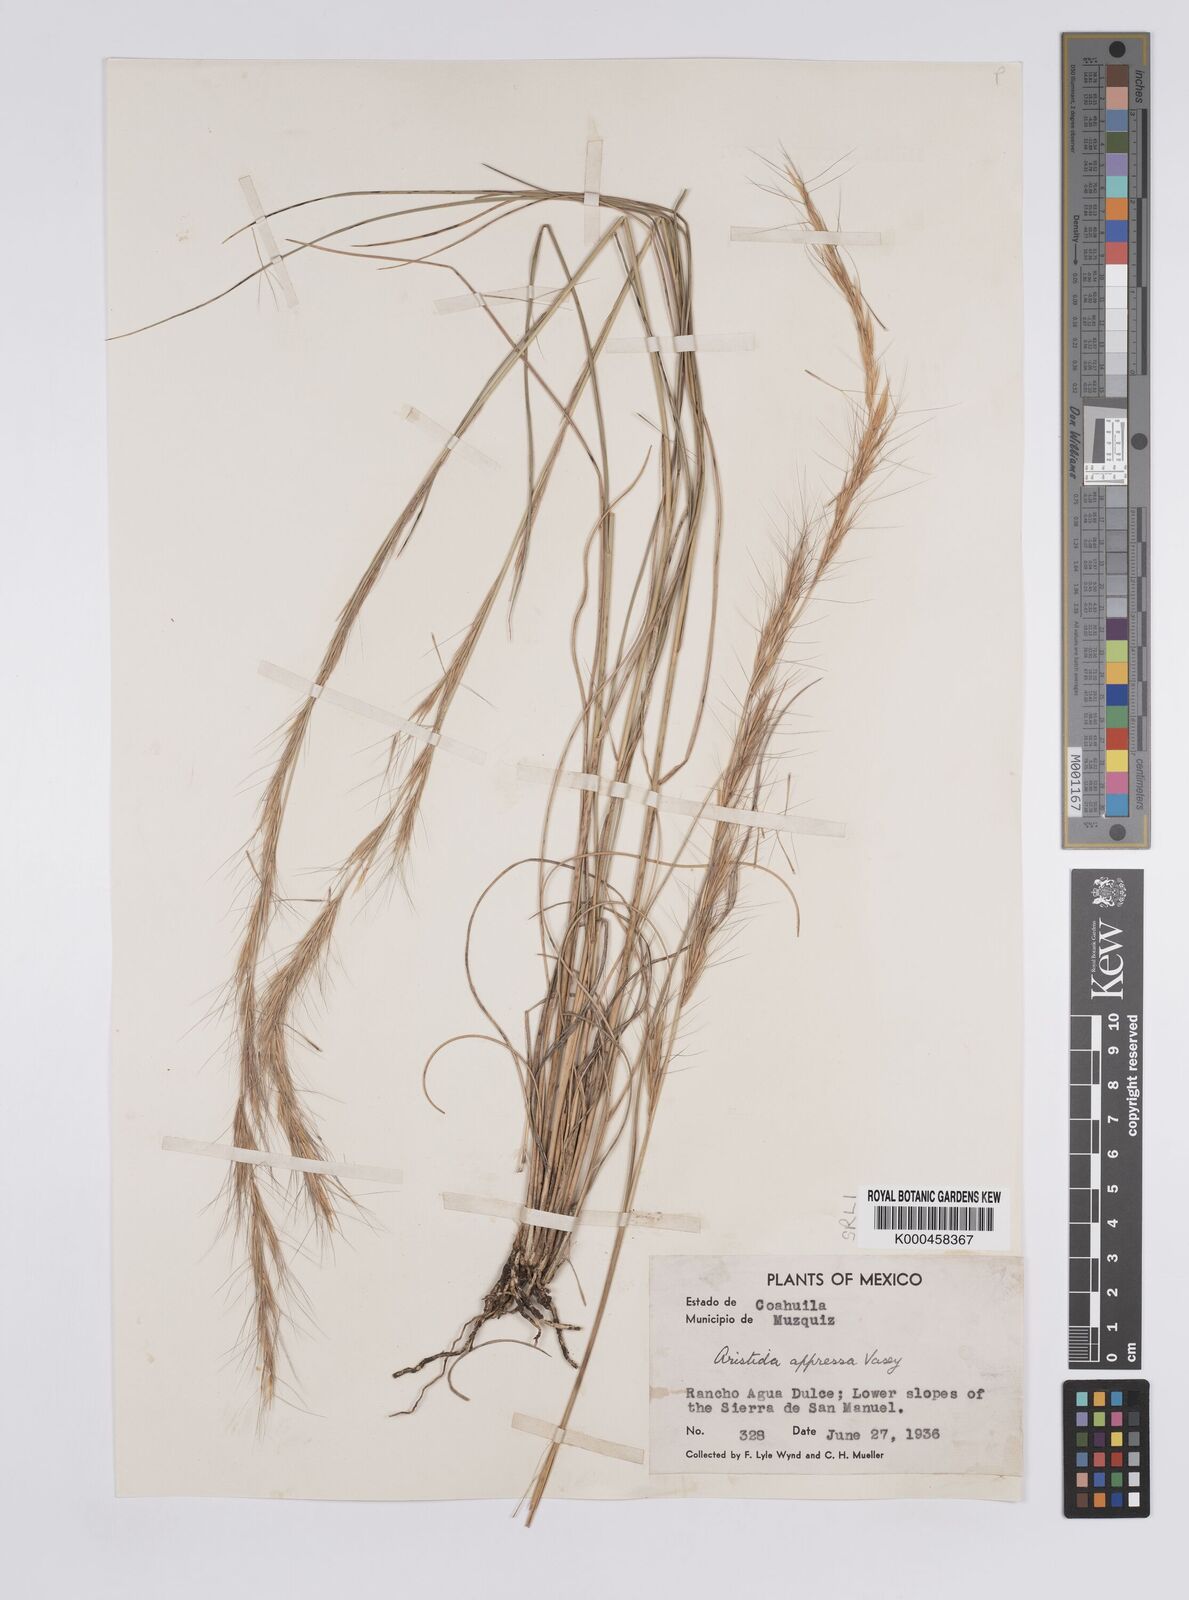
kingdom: Plantae
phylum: Tracheophyta
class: Liliopsida
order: Poales
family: Poaceae
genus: Aristida
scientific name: Aristida appressa
